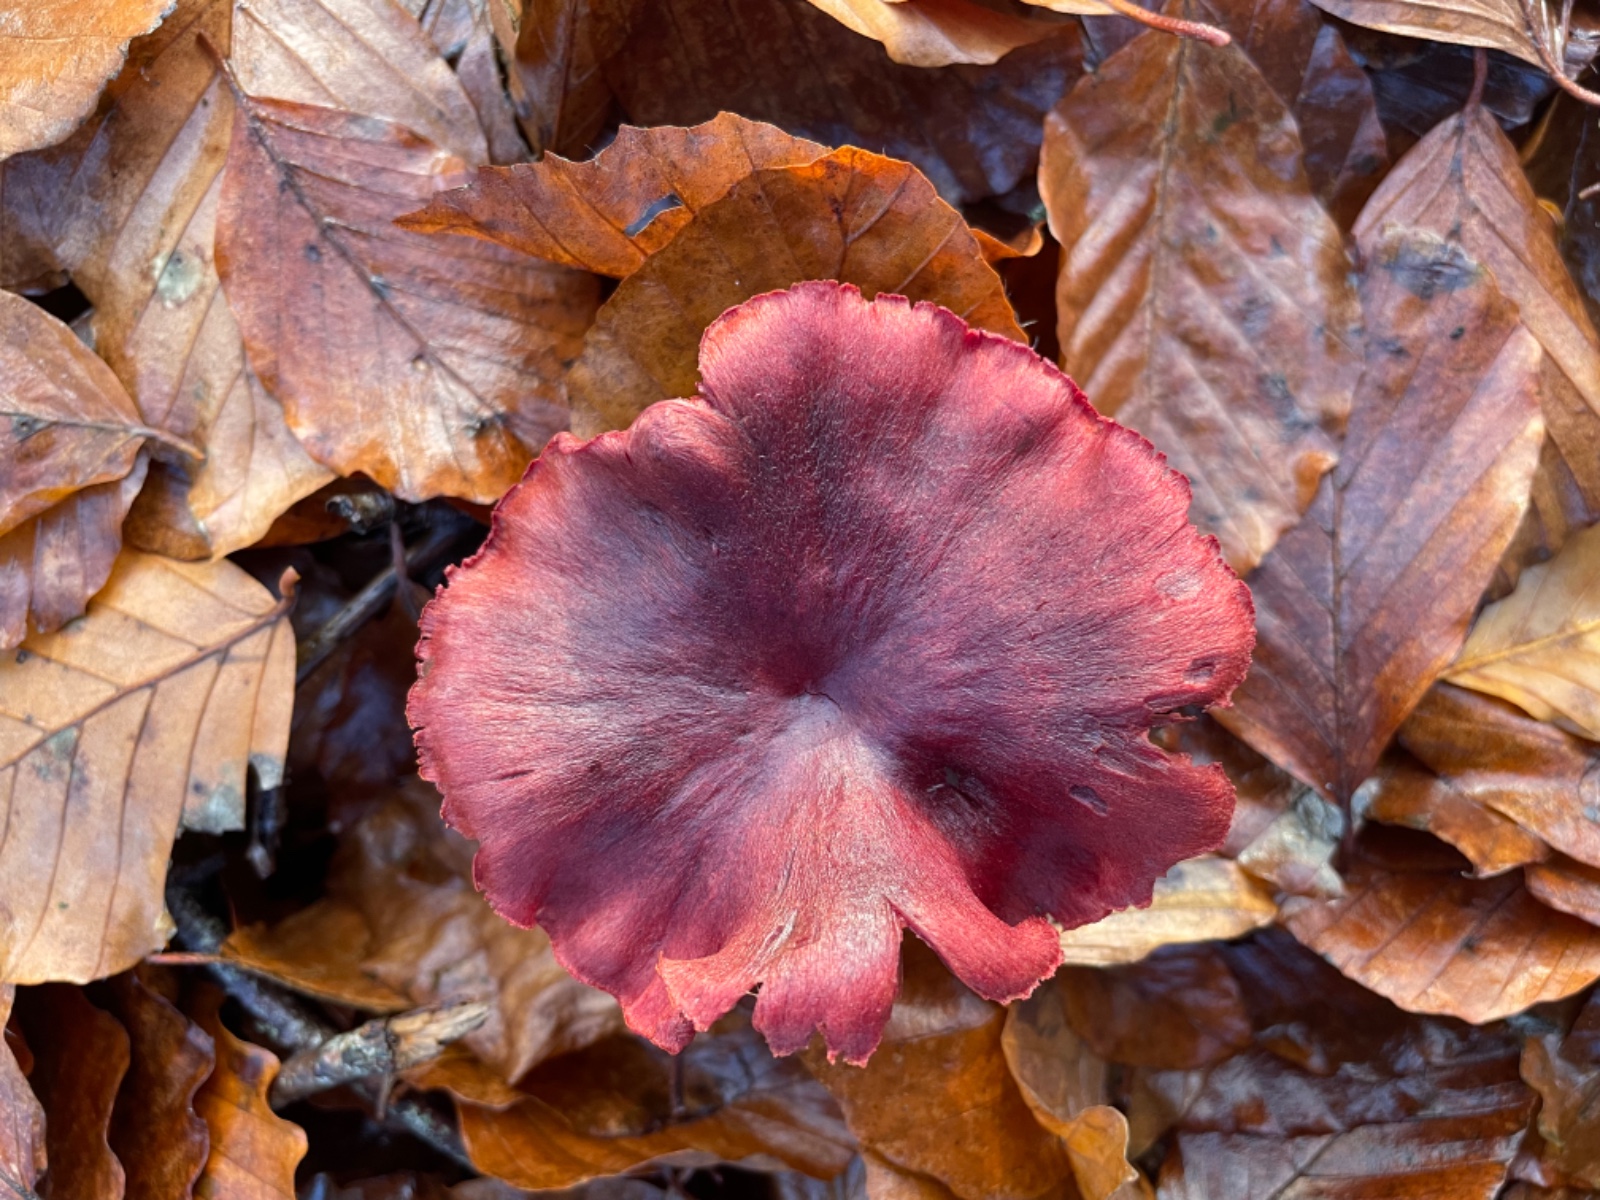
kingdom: Fungi
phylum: Basidiomycota
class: Agaricomycetes
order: Agaricales
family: Cortinariaceae
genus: Cortinarius
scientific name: Cortinarius sanguineus
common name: Bloodred webcap
